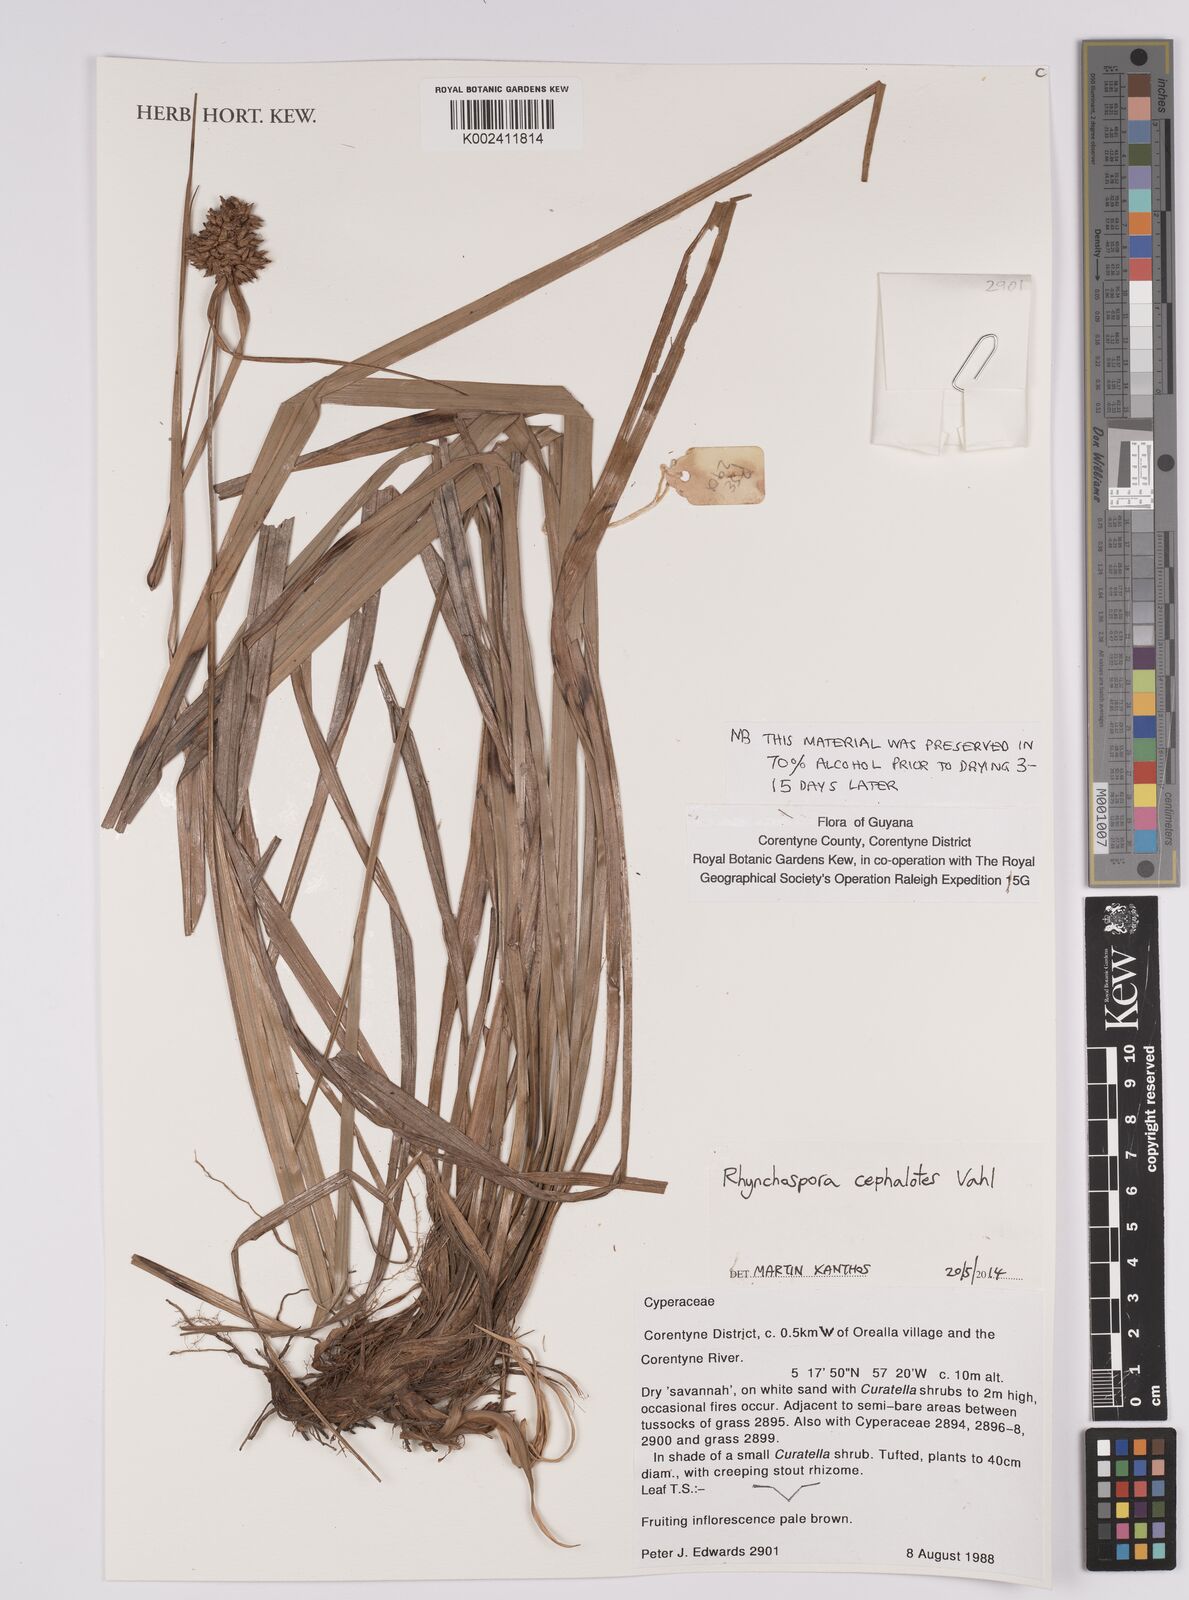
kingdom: Plantae
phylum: Tracheophyta
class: Liliopsida
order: Poales
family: Cyperaceae
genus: Rhynchospora
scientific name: Rhynchospora cephalotes
